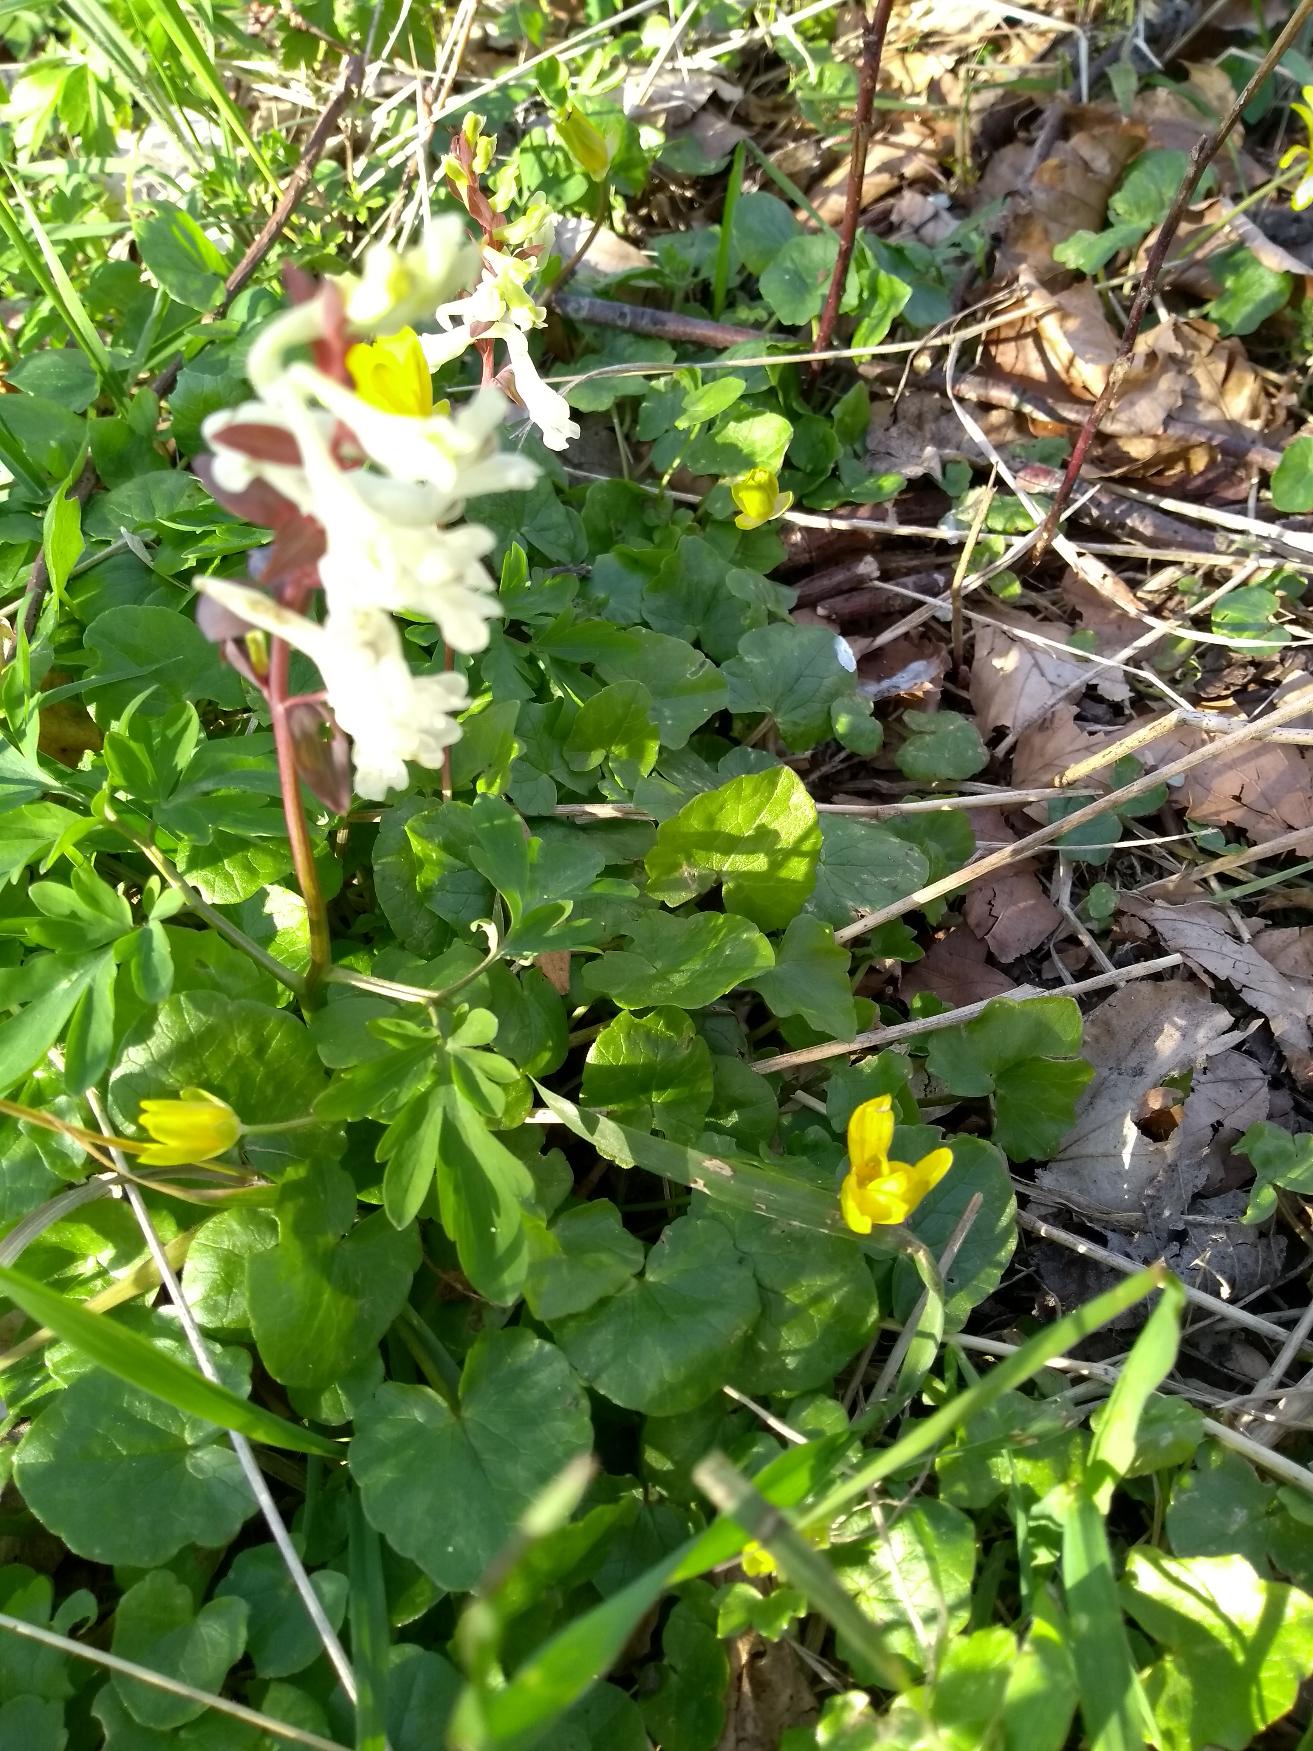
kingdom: Plantae
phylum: Tracheophyta
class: Magnoliopsida
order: Ranunculales
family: Papaveraceae
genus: Corydalis
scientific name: Corydalis cava
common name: Hulrodet lærkespore
